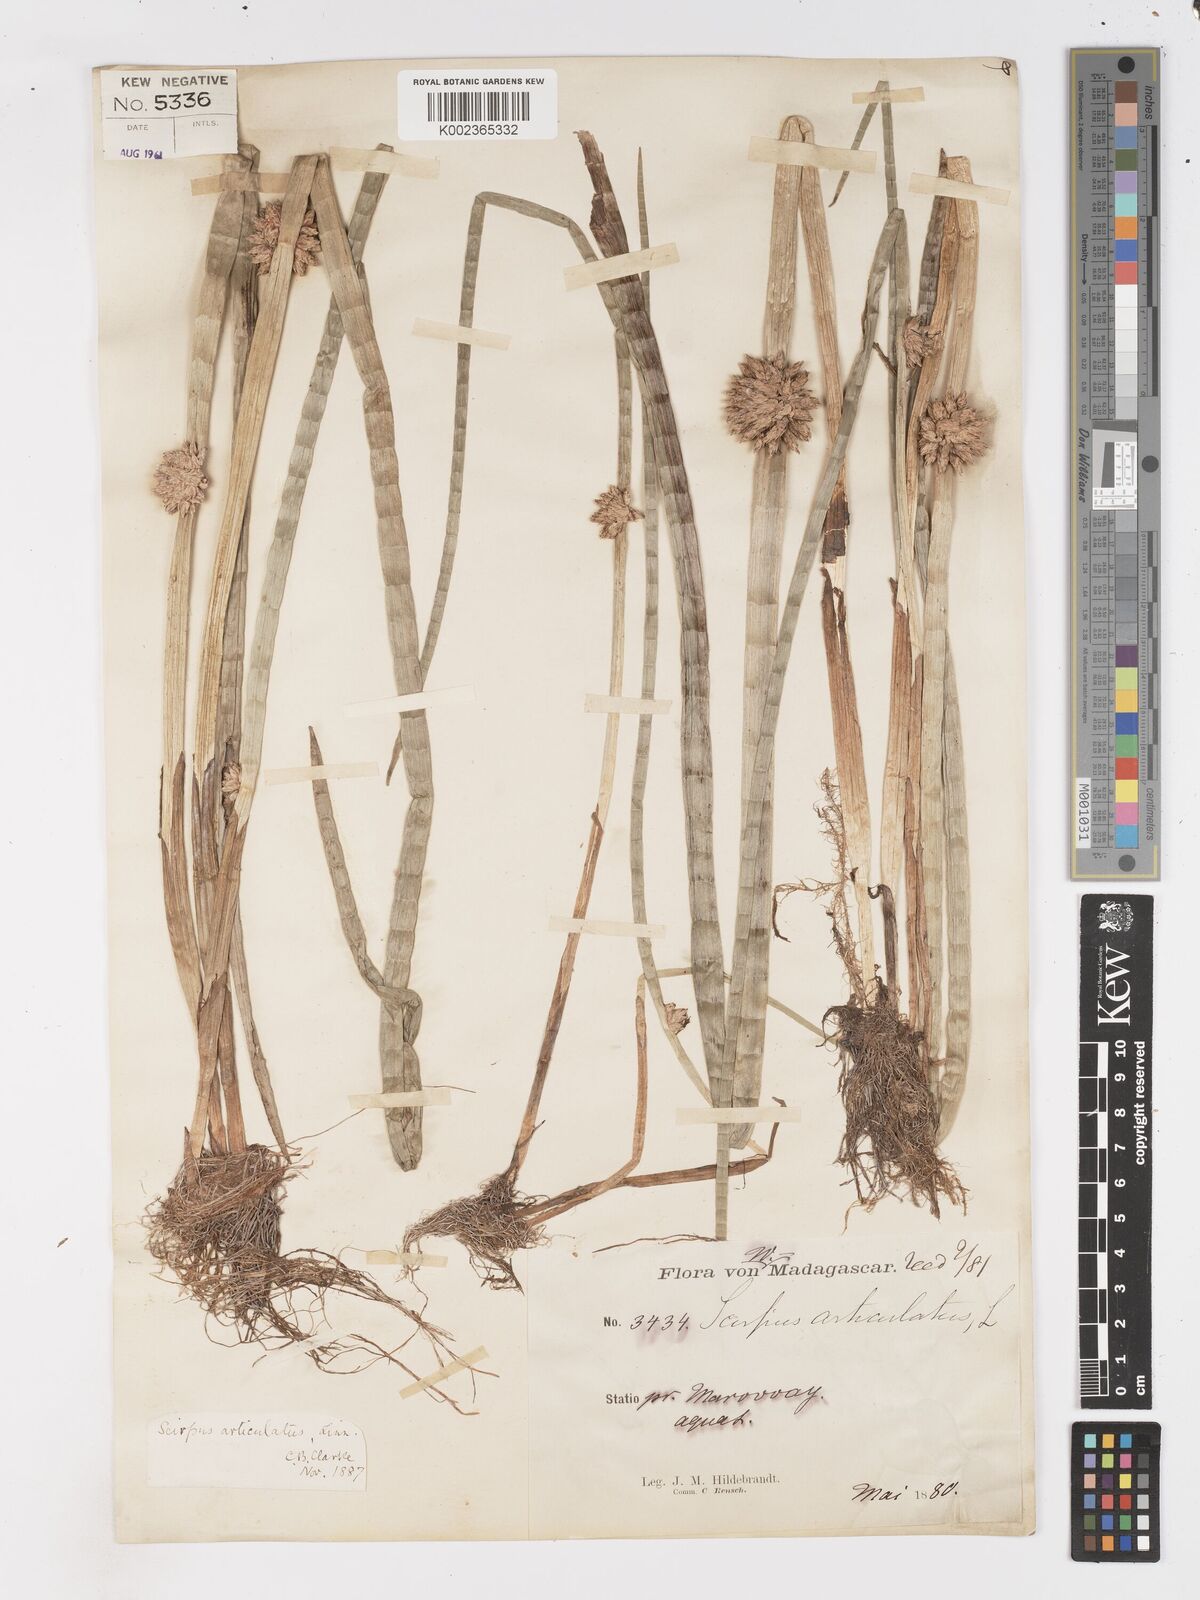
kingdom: Plantae
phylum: Tracheophyta
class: Liliopsida
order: Poales
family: Cyperaceae
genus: Schoenoplectiella
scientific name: Schoenoplectiella articulata
